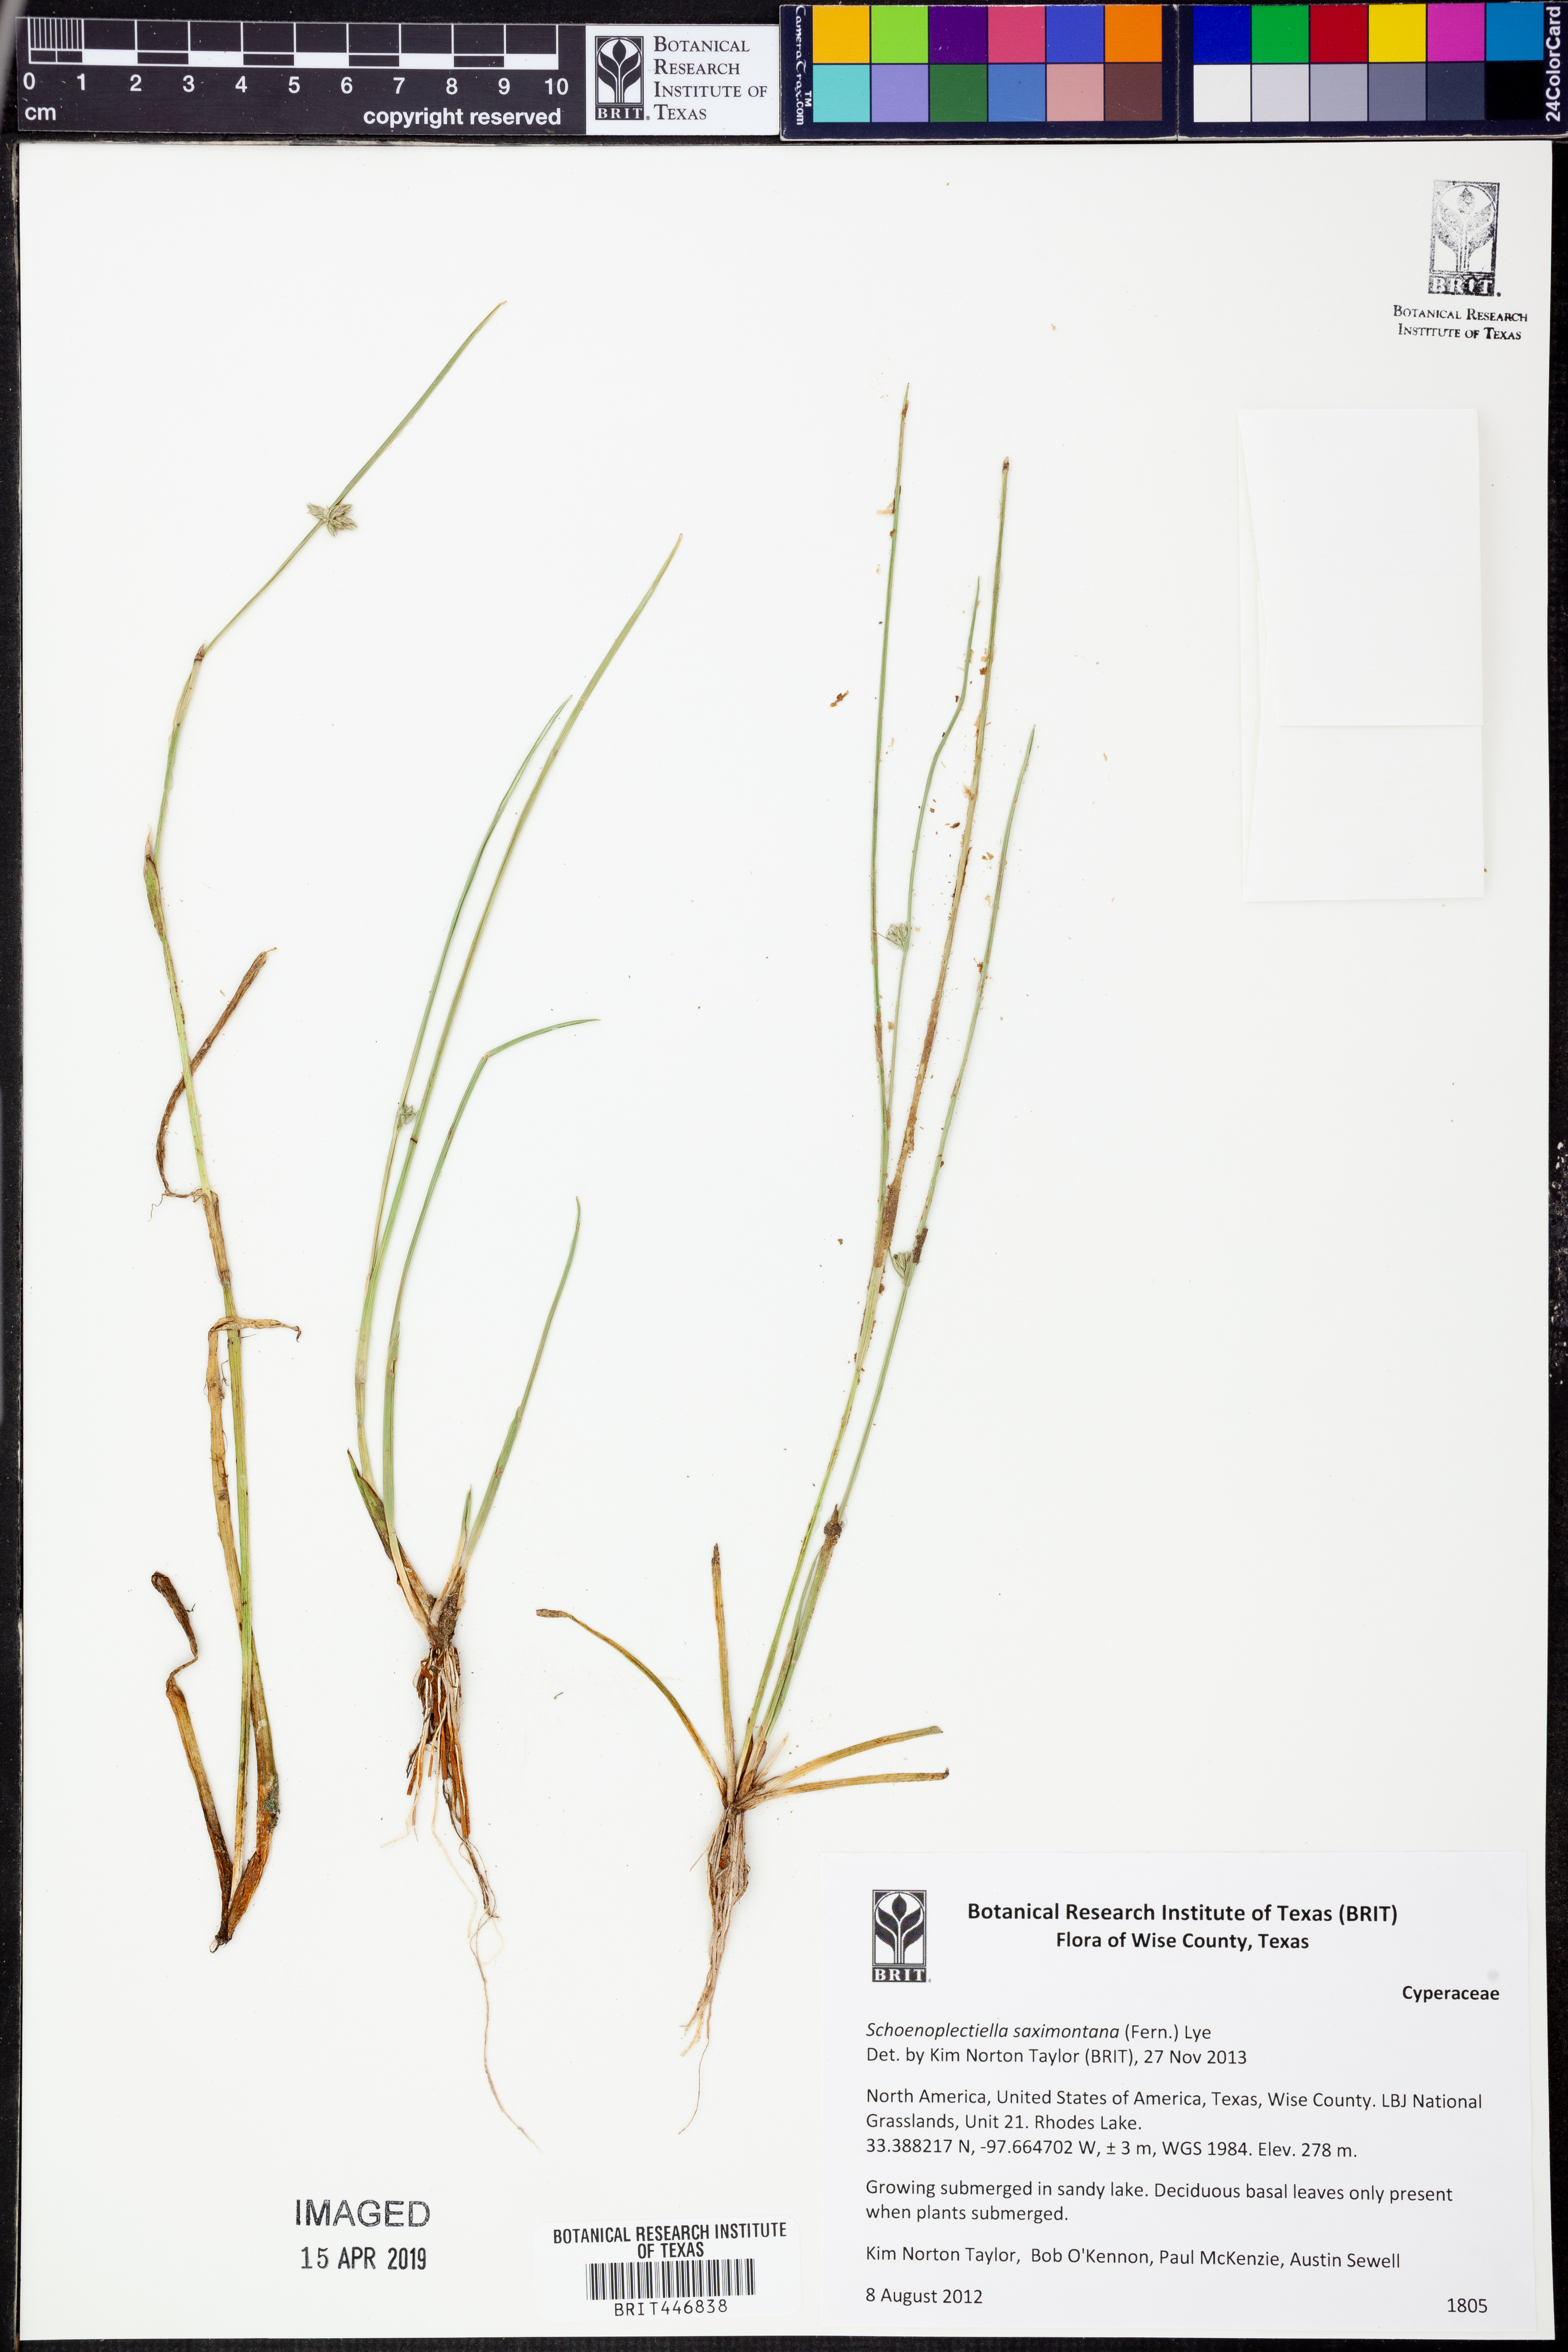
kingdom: Plantae
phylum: Tracheophyta
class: Liliopsida
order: Poales
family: Cyperaceae
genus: Schoenoplectiella
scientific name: Schoenoplectiella saximontana
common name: Rocky mountain clubrush
